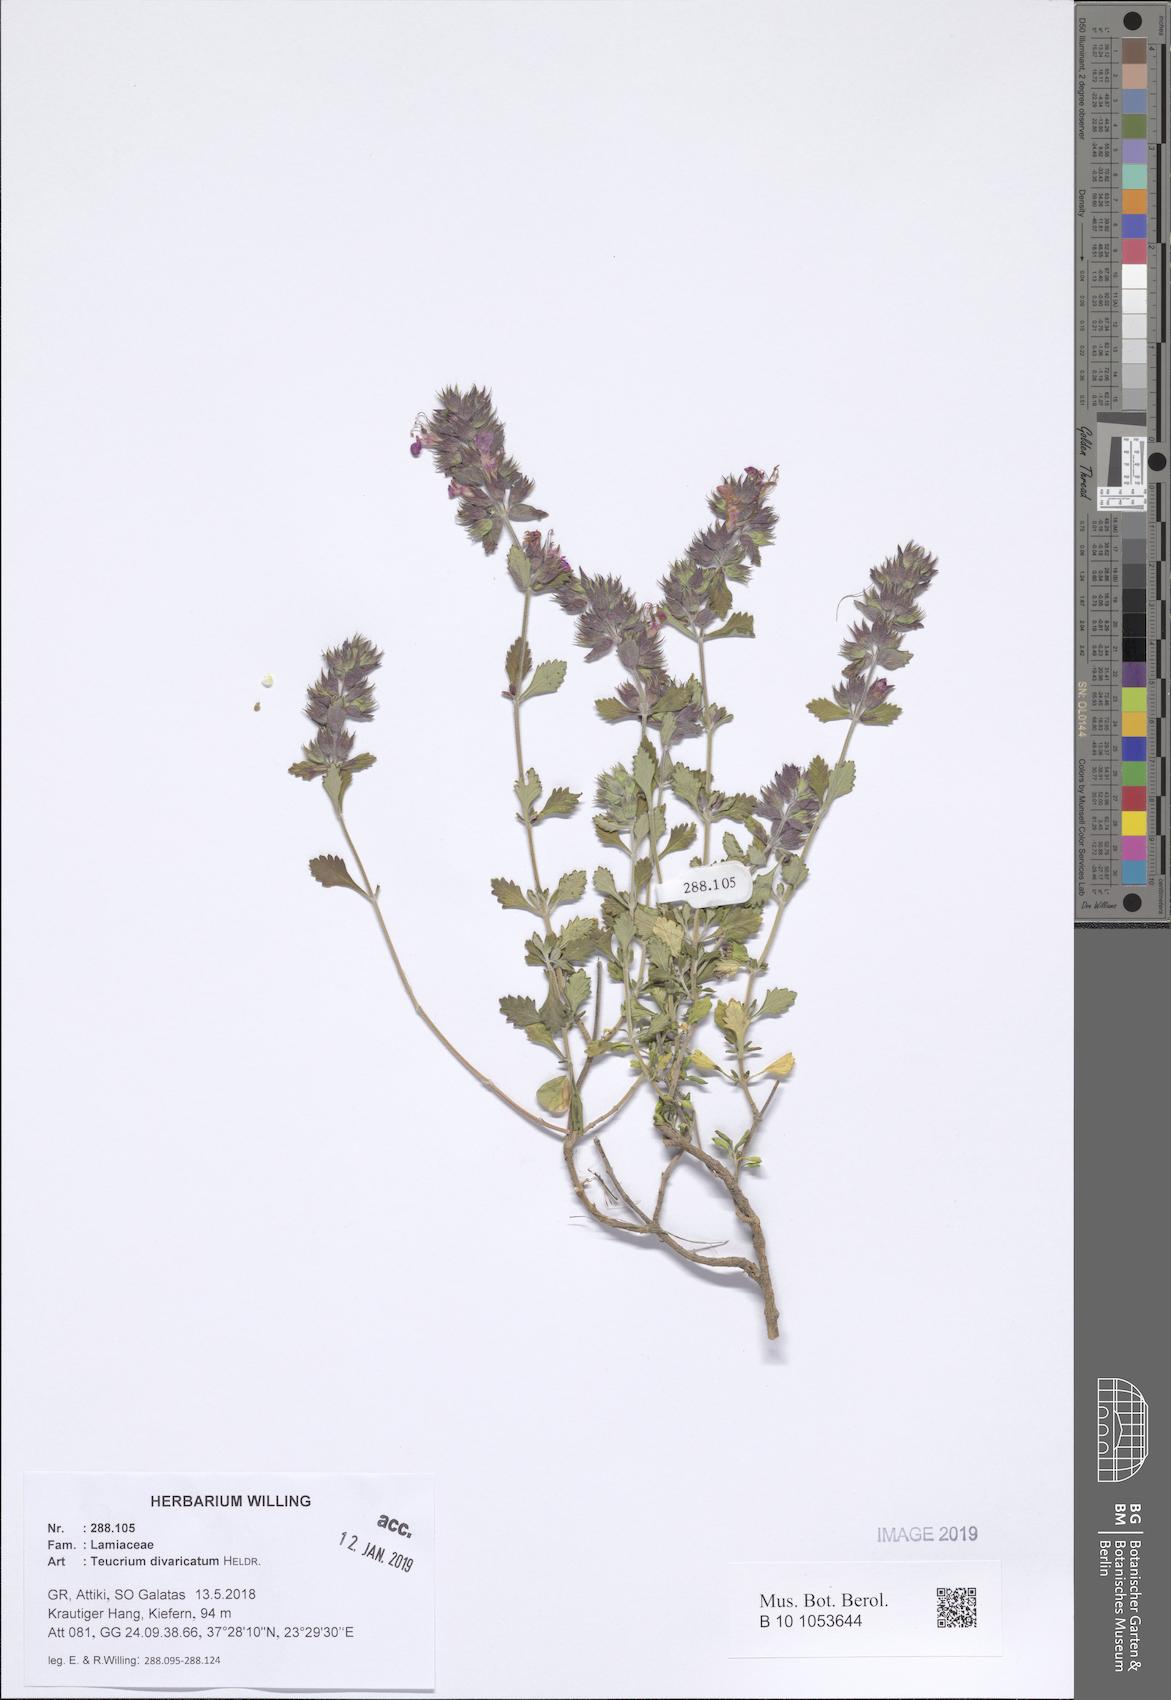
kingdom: Plantae
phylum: Tracheophyta
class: Magnoliopsida
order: Lamiales
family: Lamiaceae
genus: Teucrium
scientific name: Teucrium divaricatum
